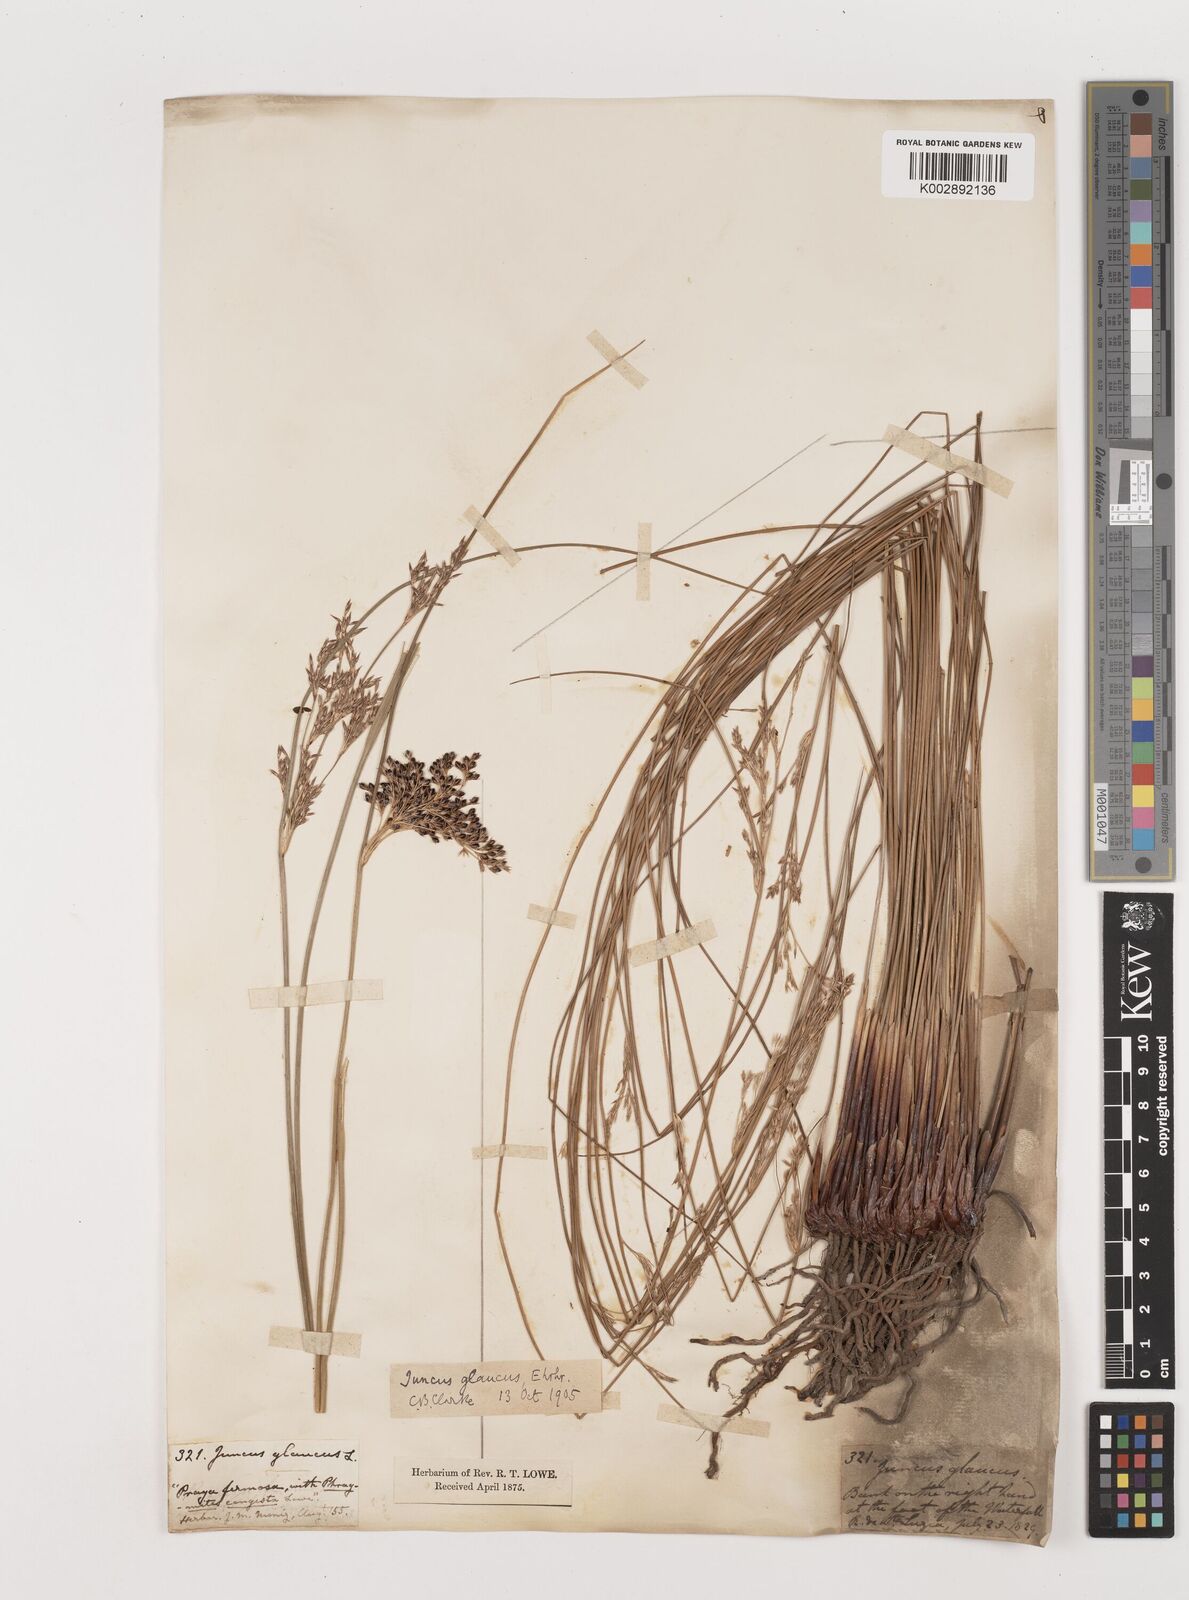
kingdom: Plantae
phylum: Tracheophyta
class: Liliopsida
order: Poales
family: Juncaceae
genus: Juncus
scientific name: Juncus inflexus
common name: Hard rush
